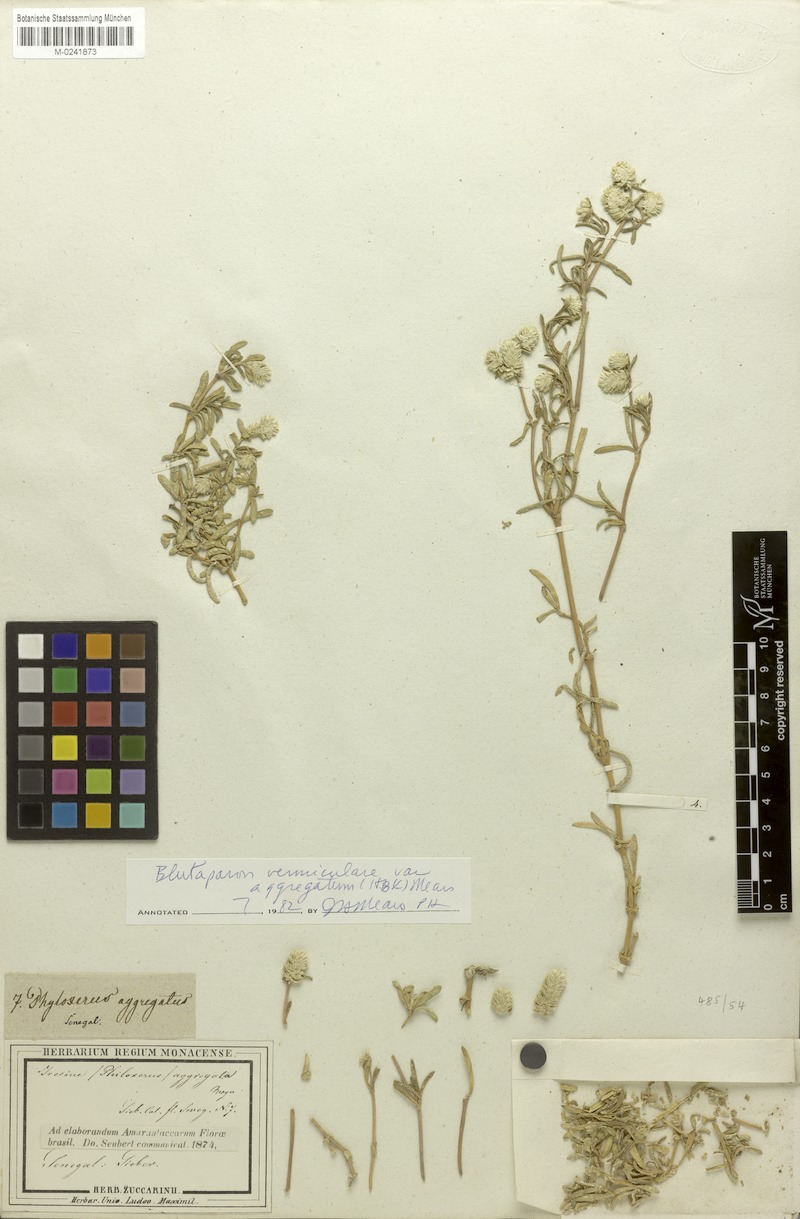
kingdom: Plantae
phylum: Tracheophyta
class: Magnoliopsida
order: Caryophyllales
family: Amaranthaceae
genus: Gomphrena
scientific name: Gomphrena vermicularis
